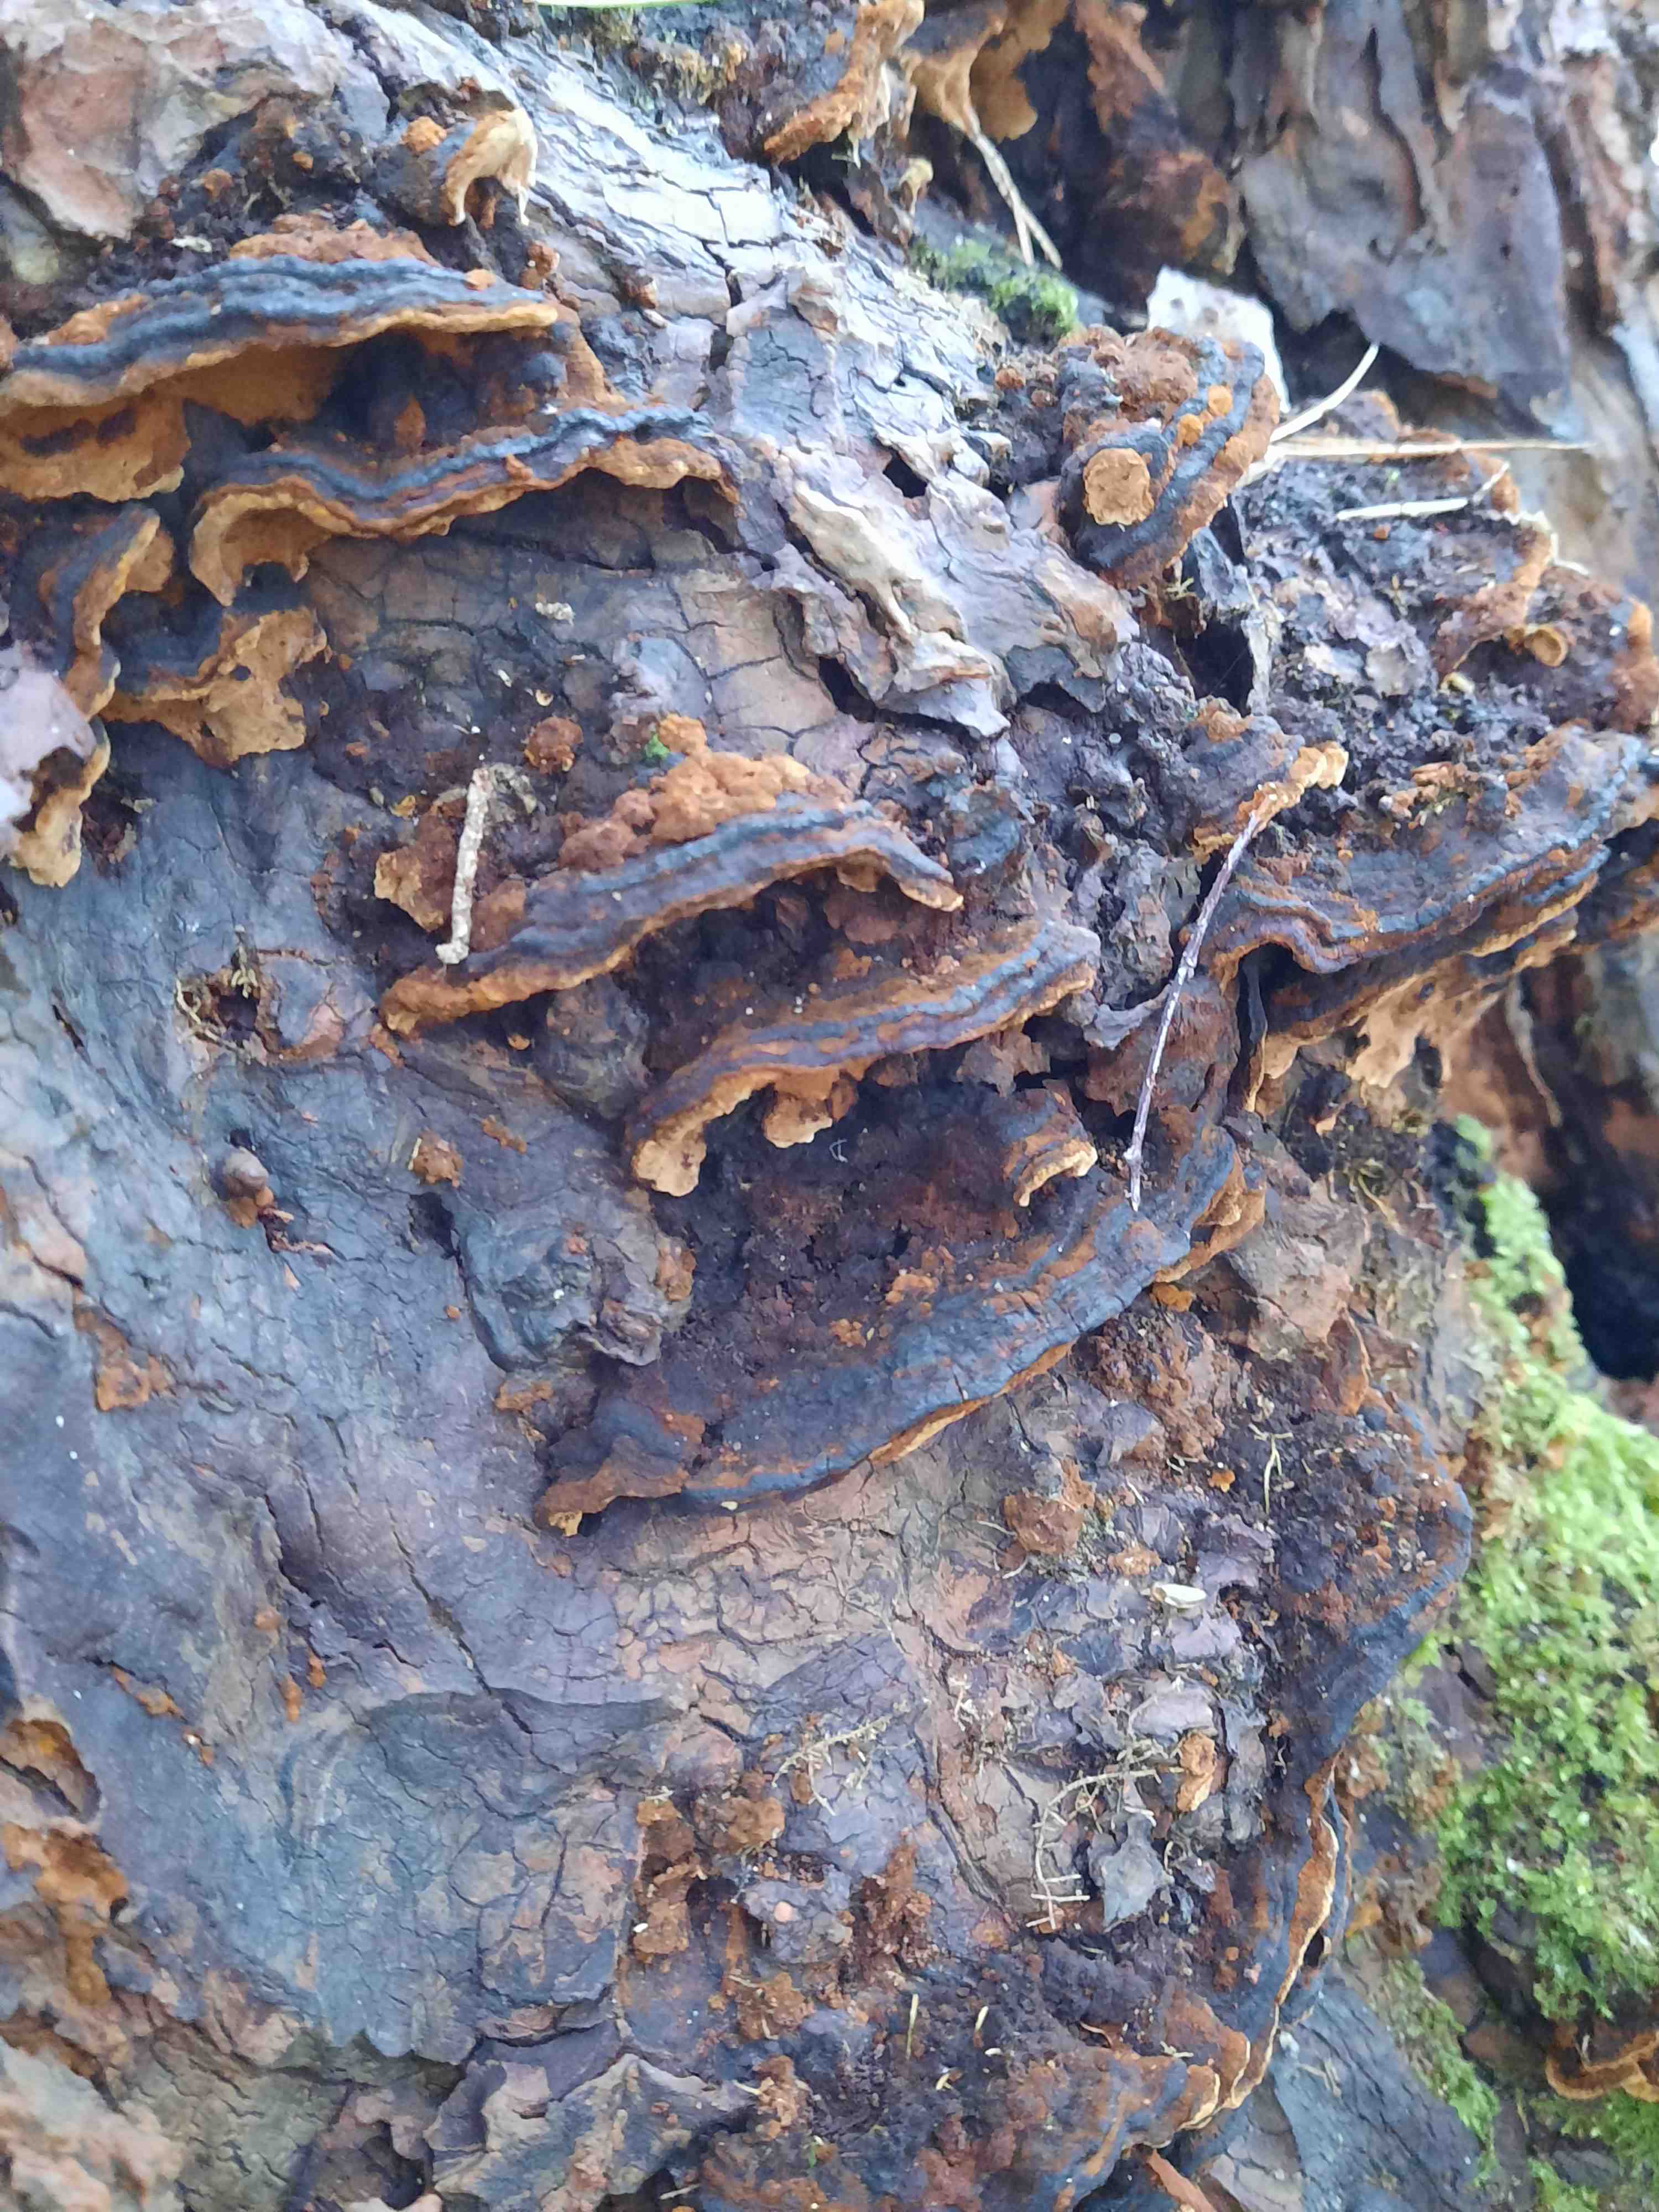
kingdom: Fungi
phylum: Basidiomycota
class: Agaricomycetes
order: Hymenochaetales
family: Hymenochaetaceae
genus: Phellinopsis
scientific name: Phellinopsis conchata
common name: pile-ildporesvamp
